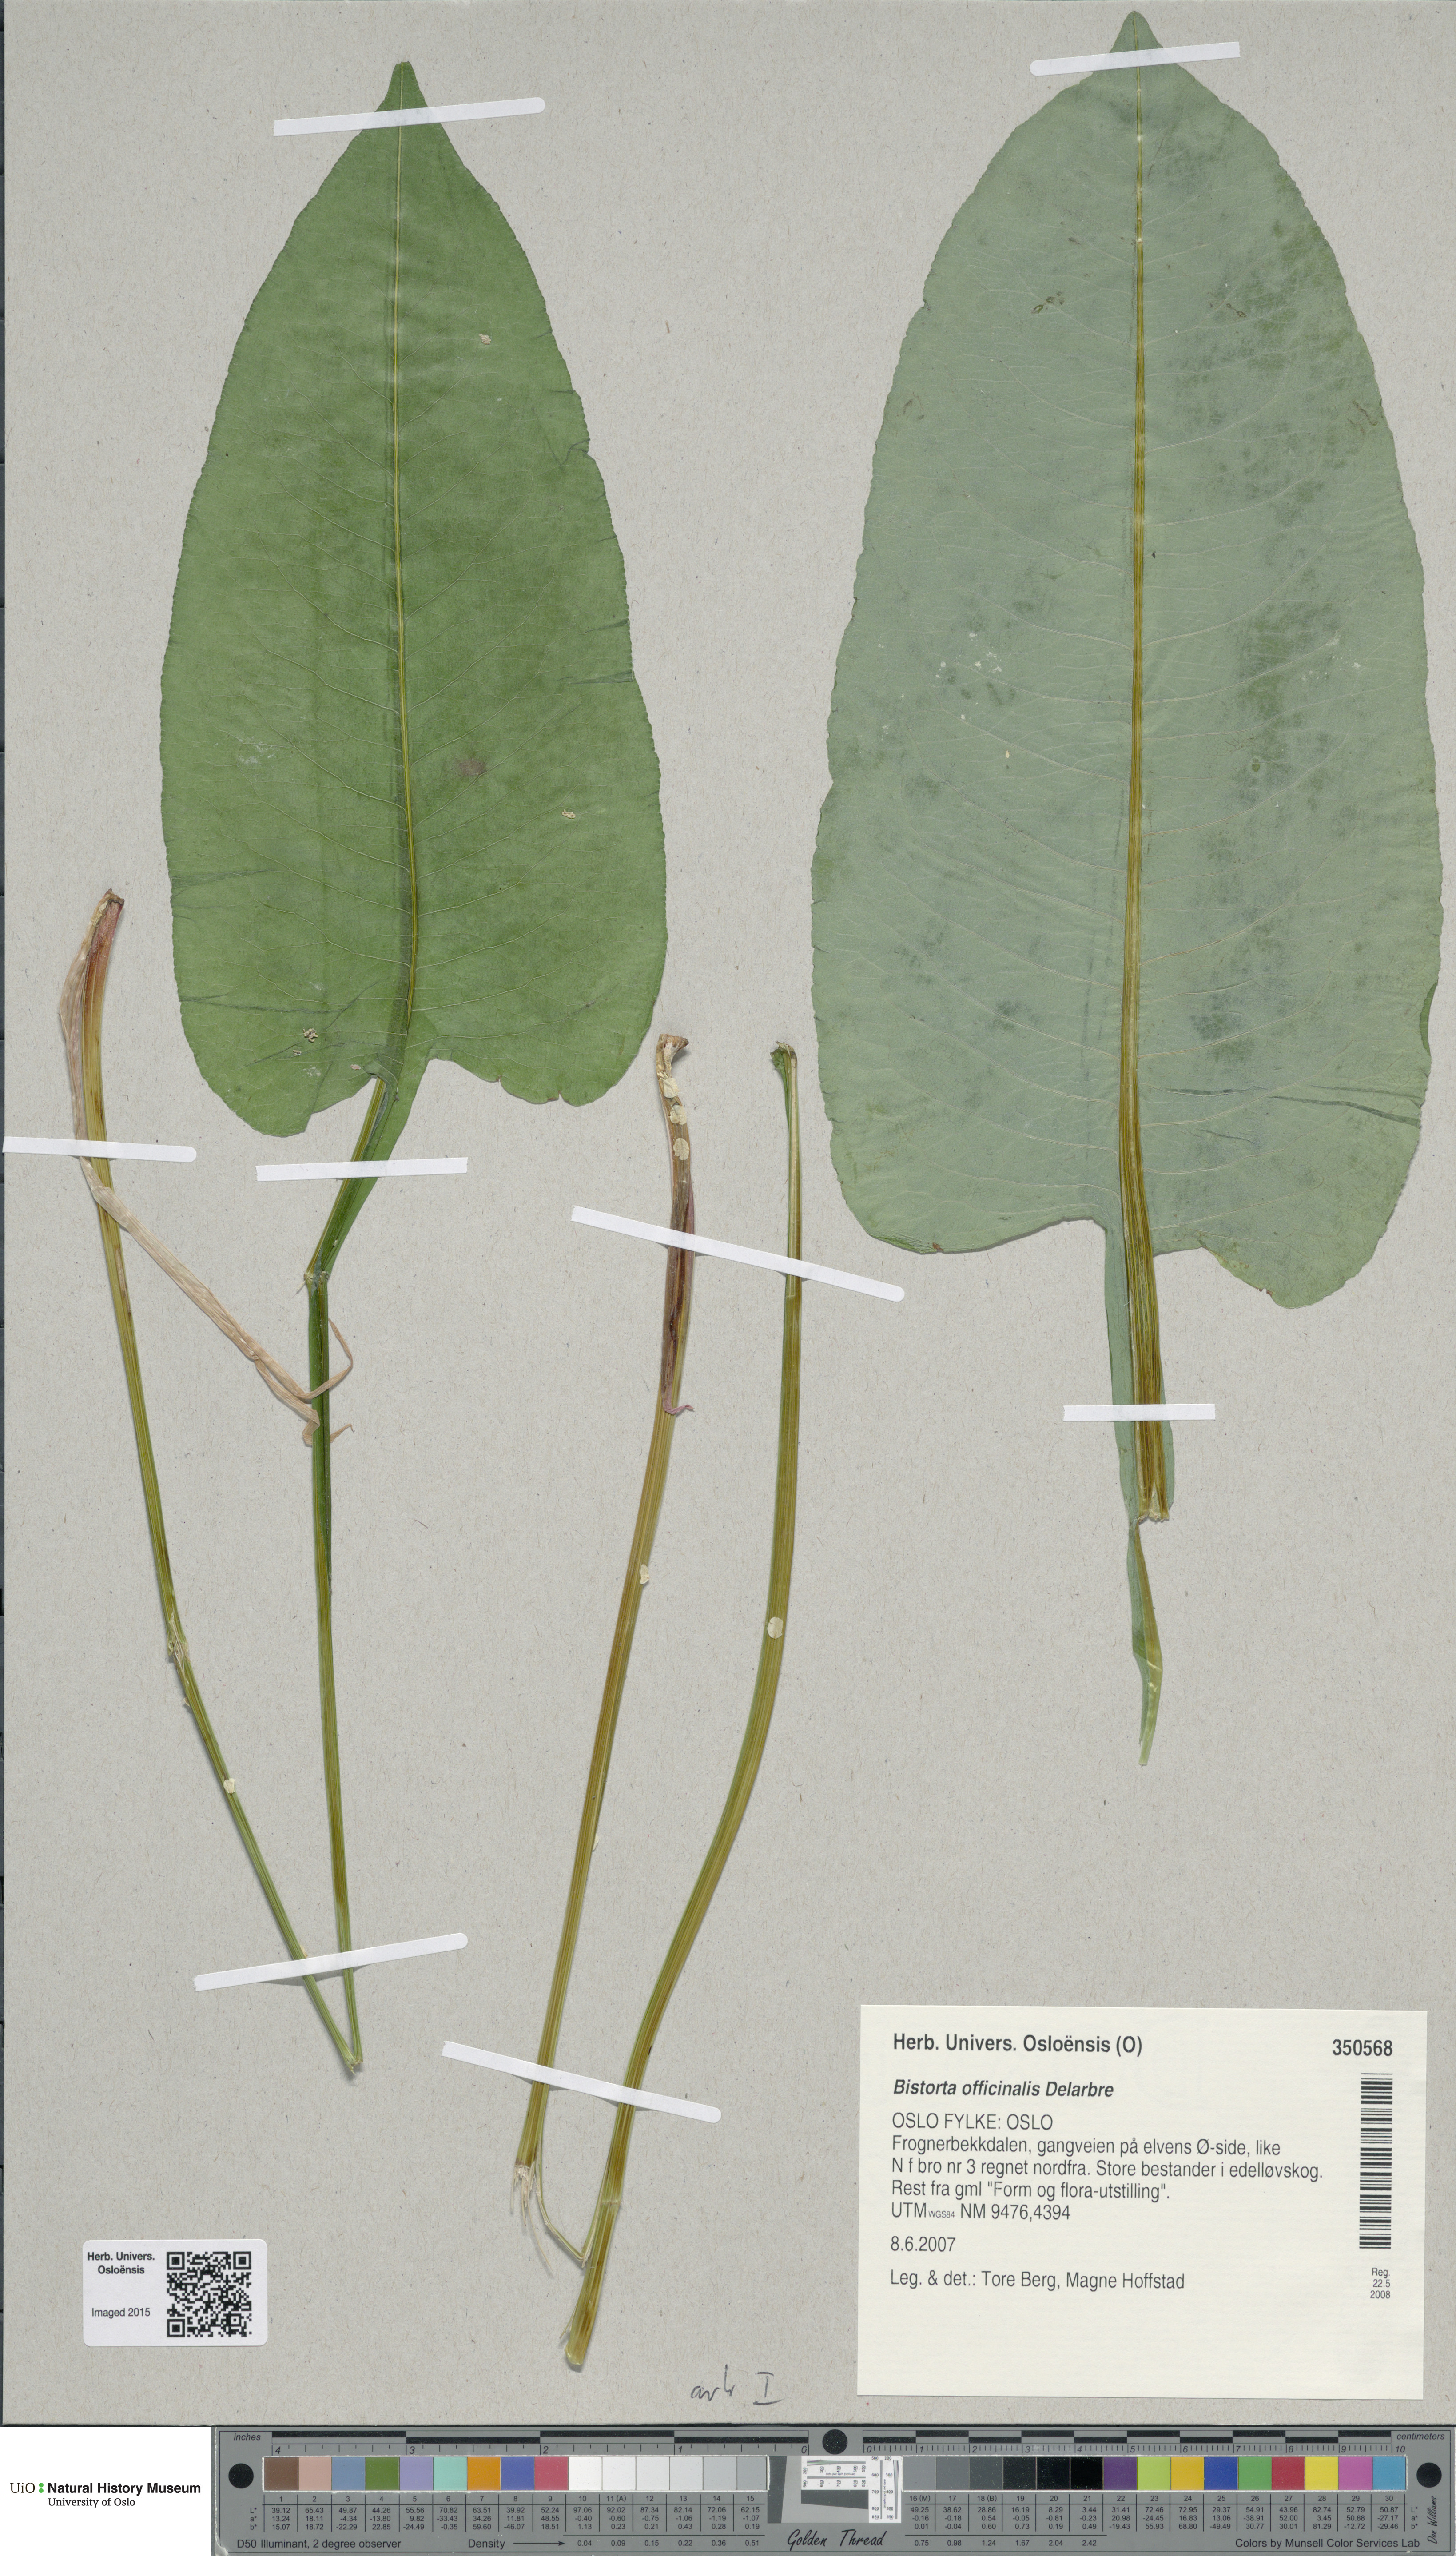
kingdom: Plantae
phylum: Tracheophyta
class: Magnoliopsida
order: Caryophyllales
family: Polygonaceae
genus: Bistorta
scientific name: Bistorta officinalis
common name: Common bistort
